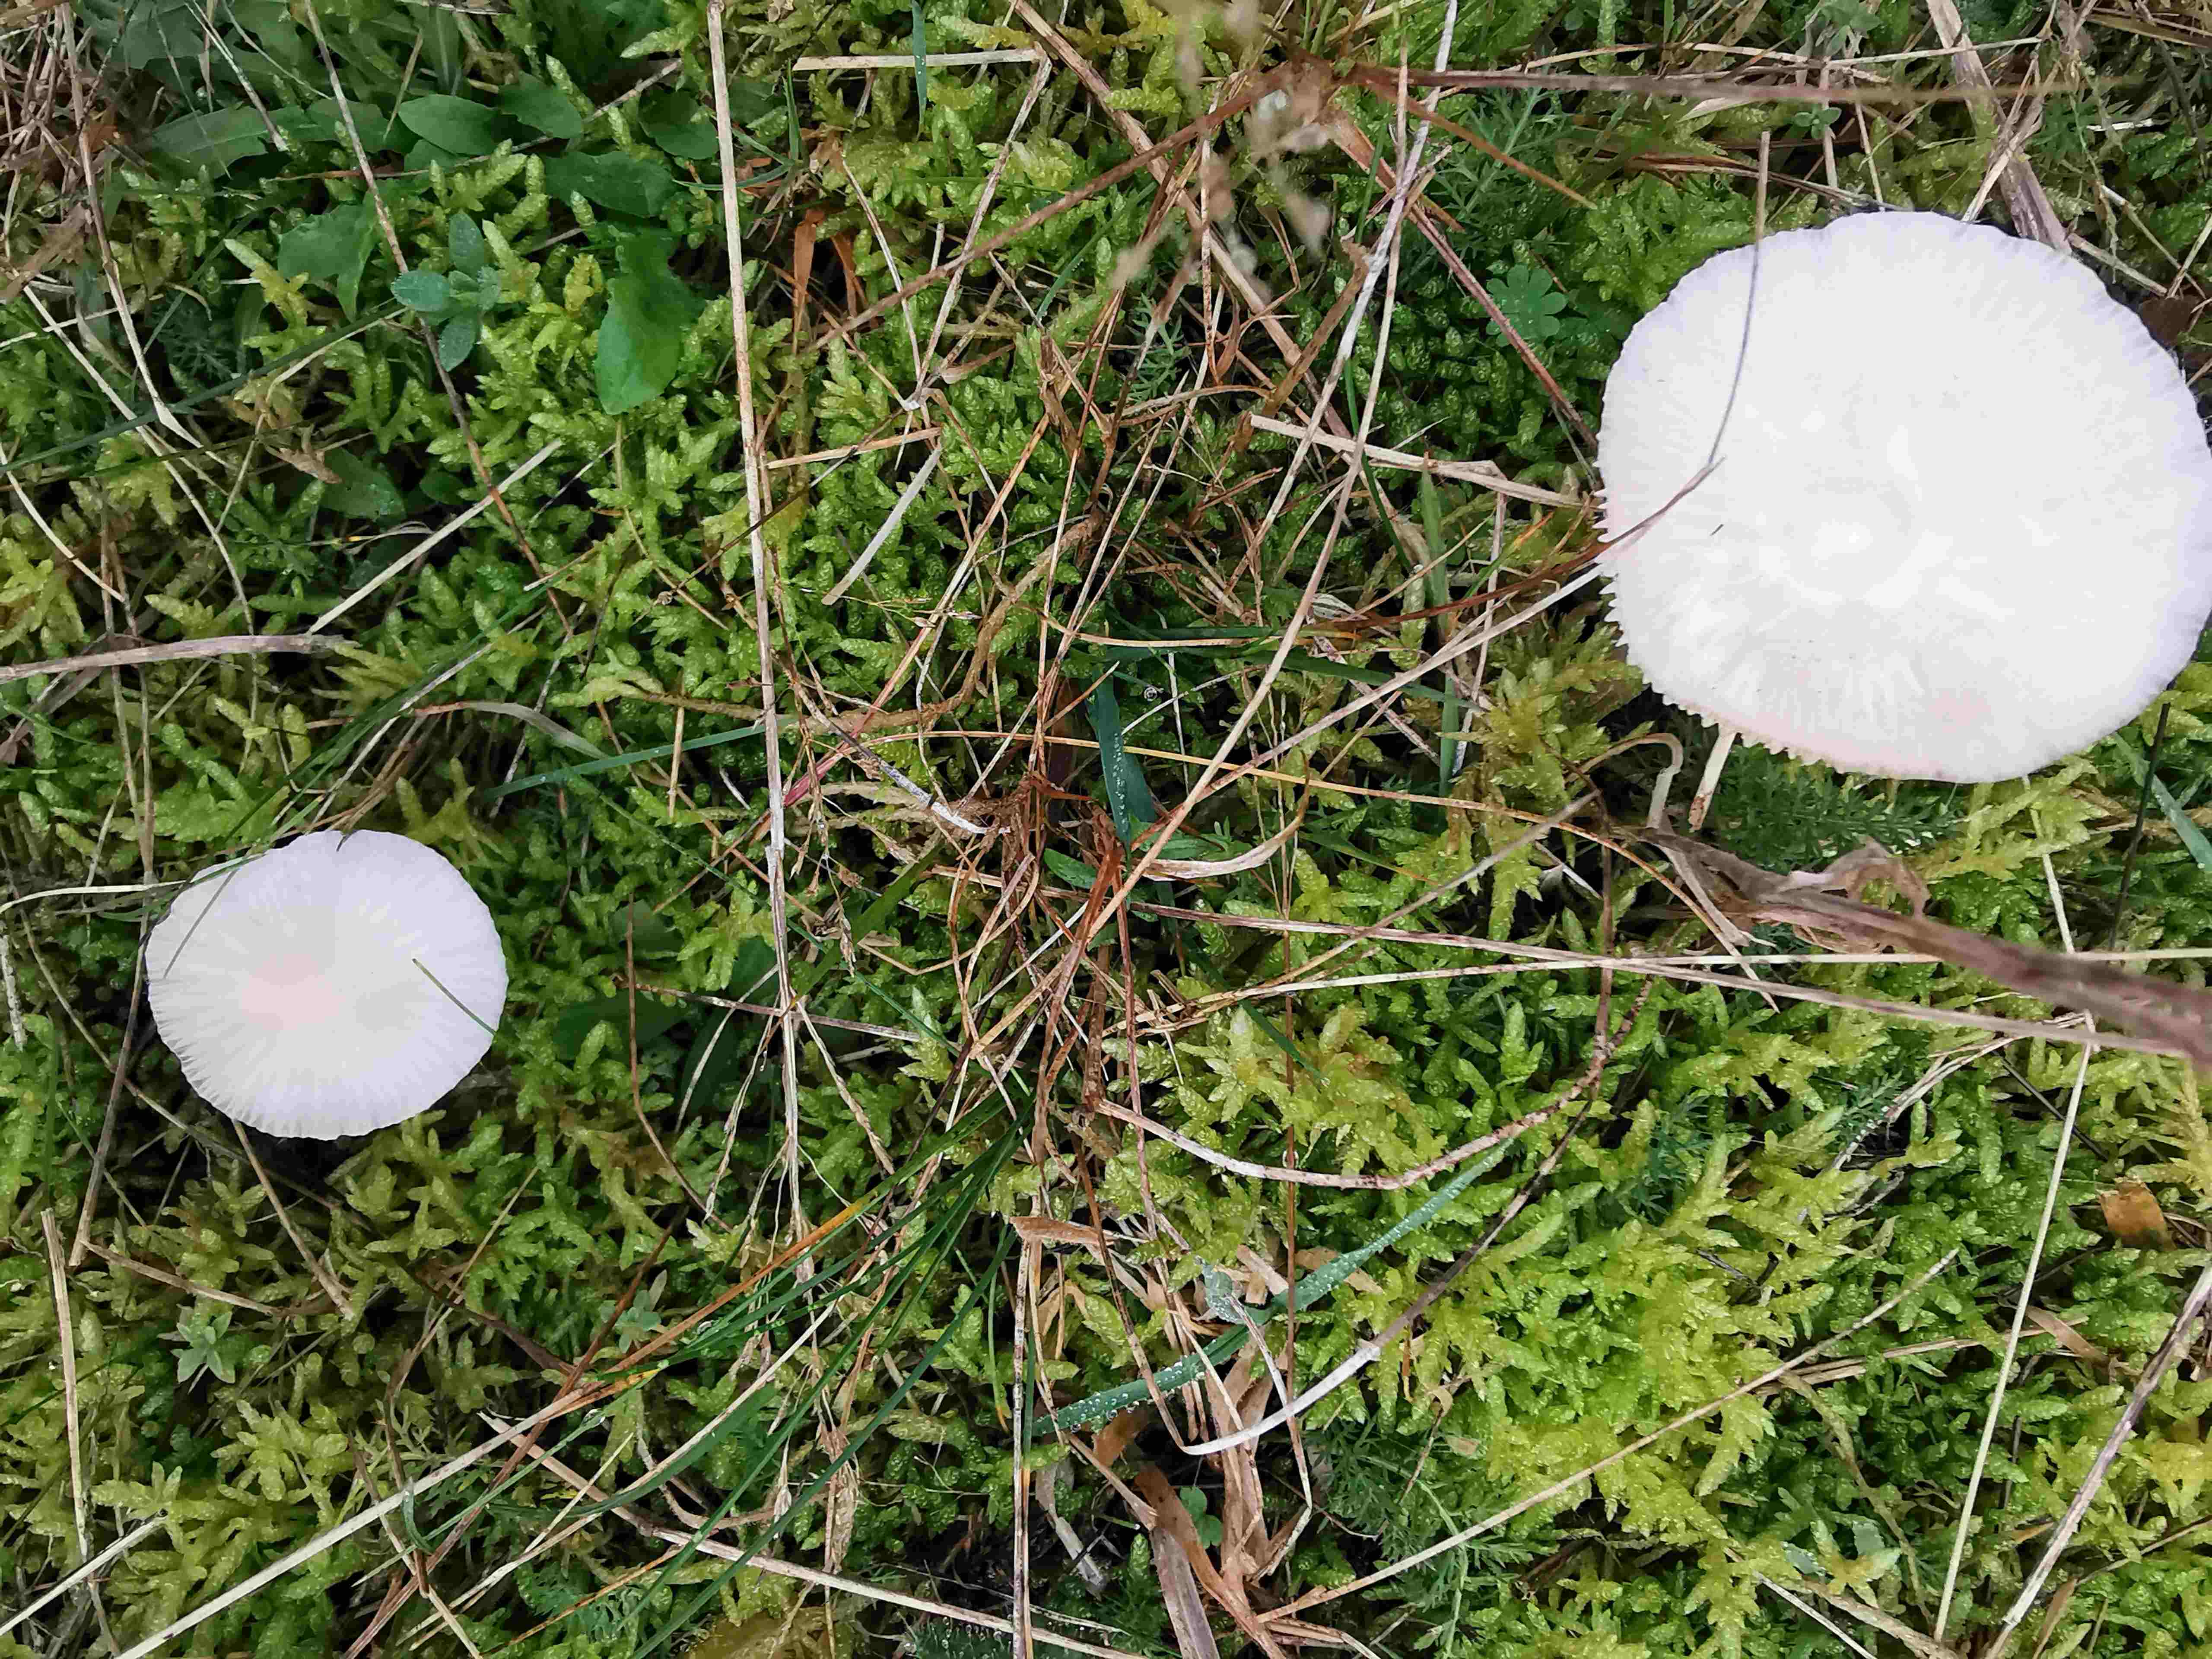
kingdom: Fungi
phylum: Basidiomycota
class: Agaricomycetes
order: Agaricales
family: Hygrophoraceae
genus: Cuphophyllus
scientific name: Cuphophyllus russocoriaceus
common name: ruslæder-vokshat
